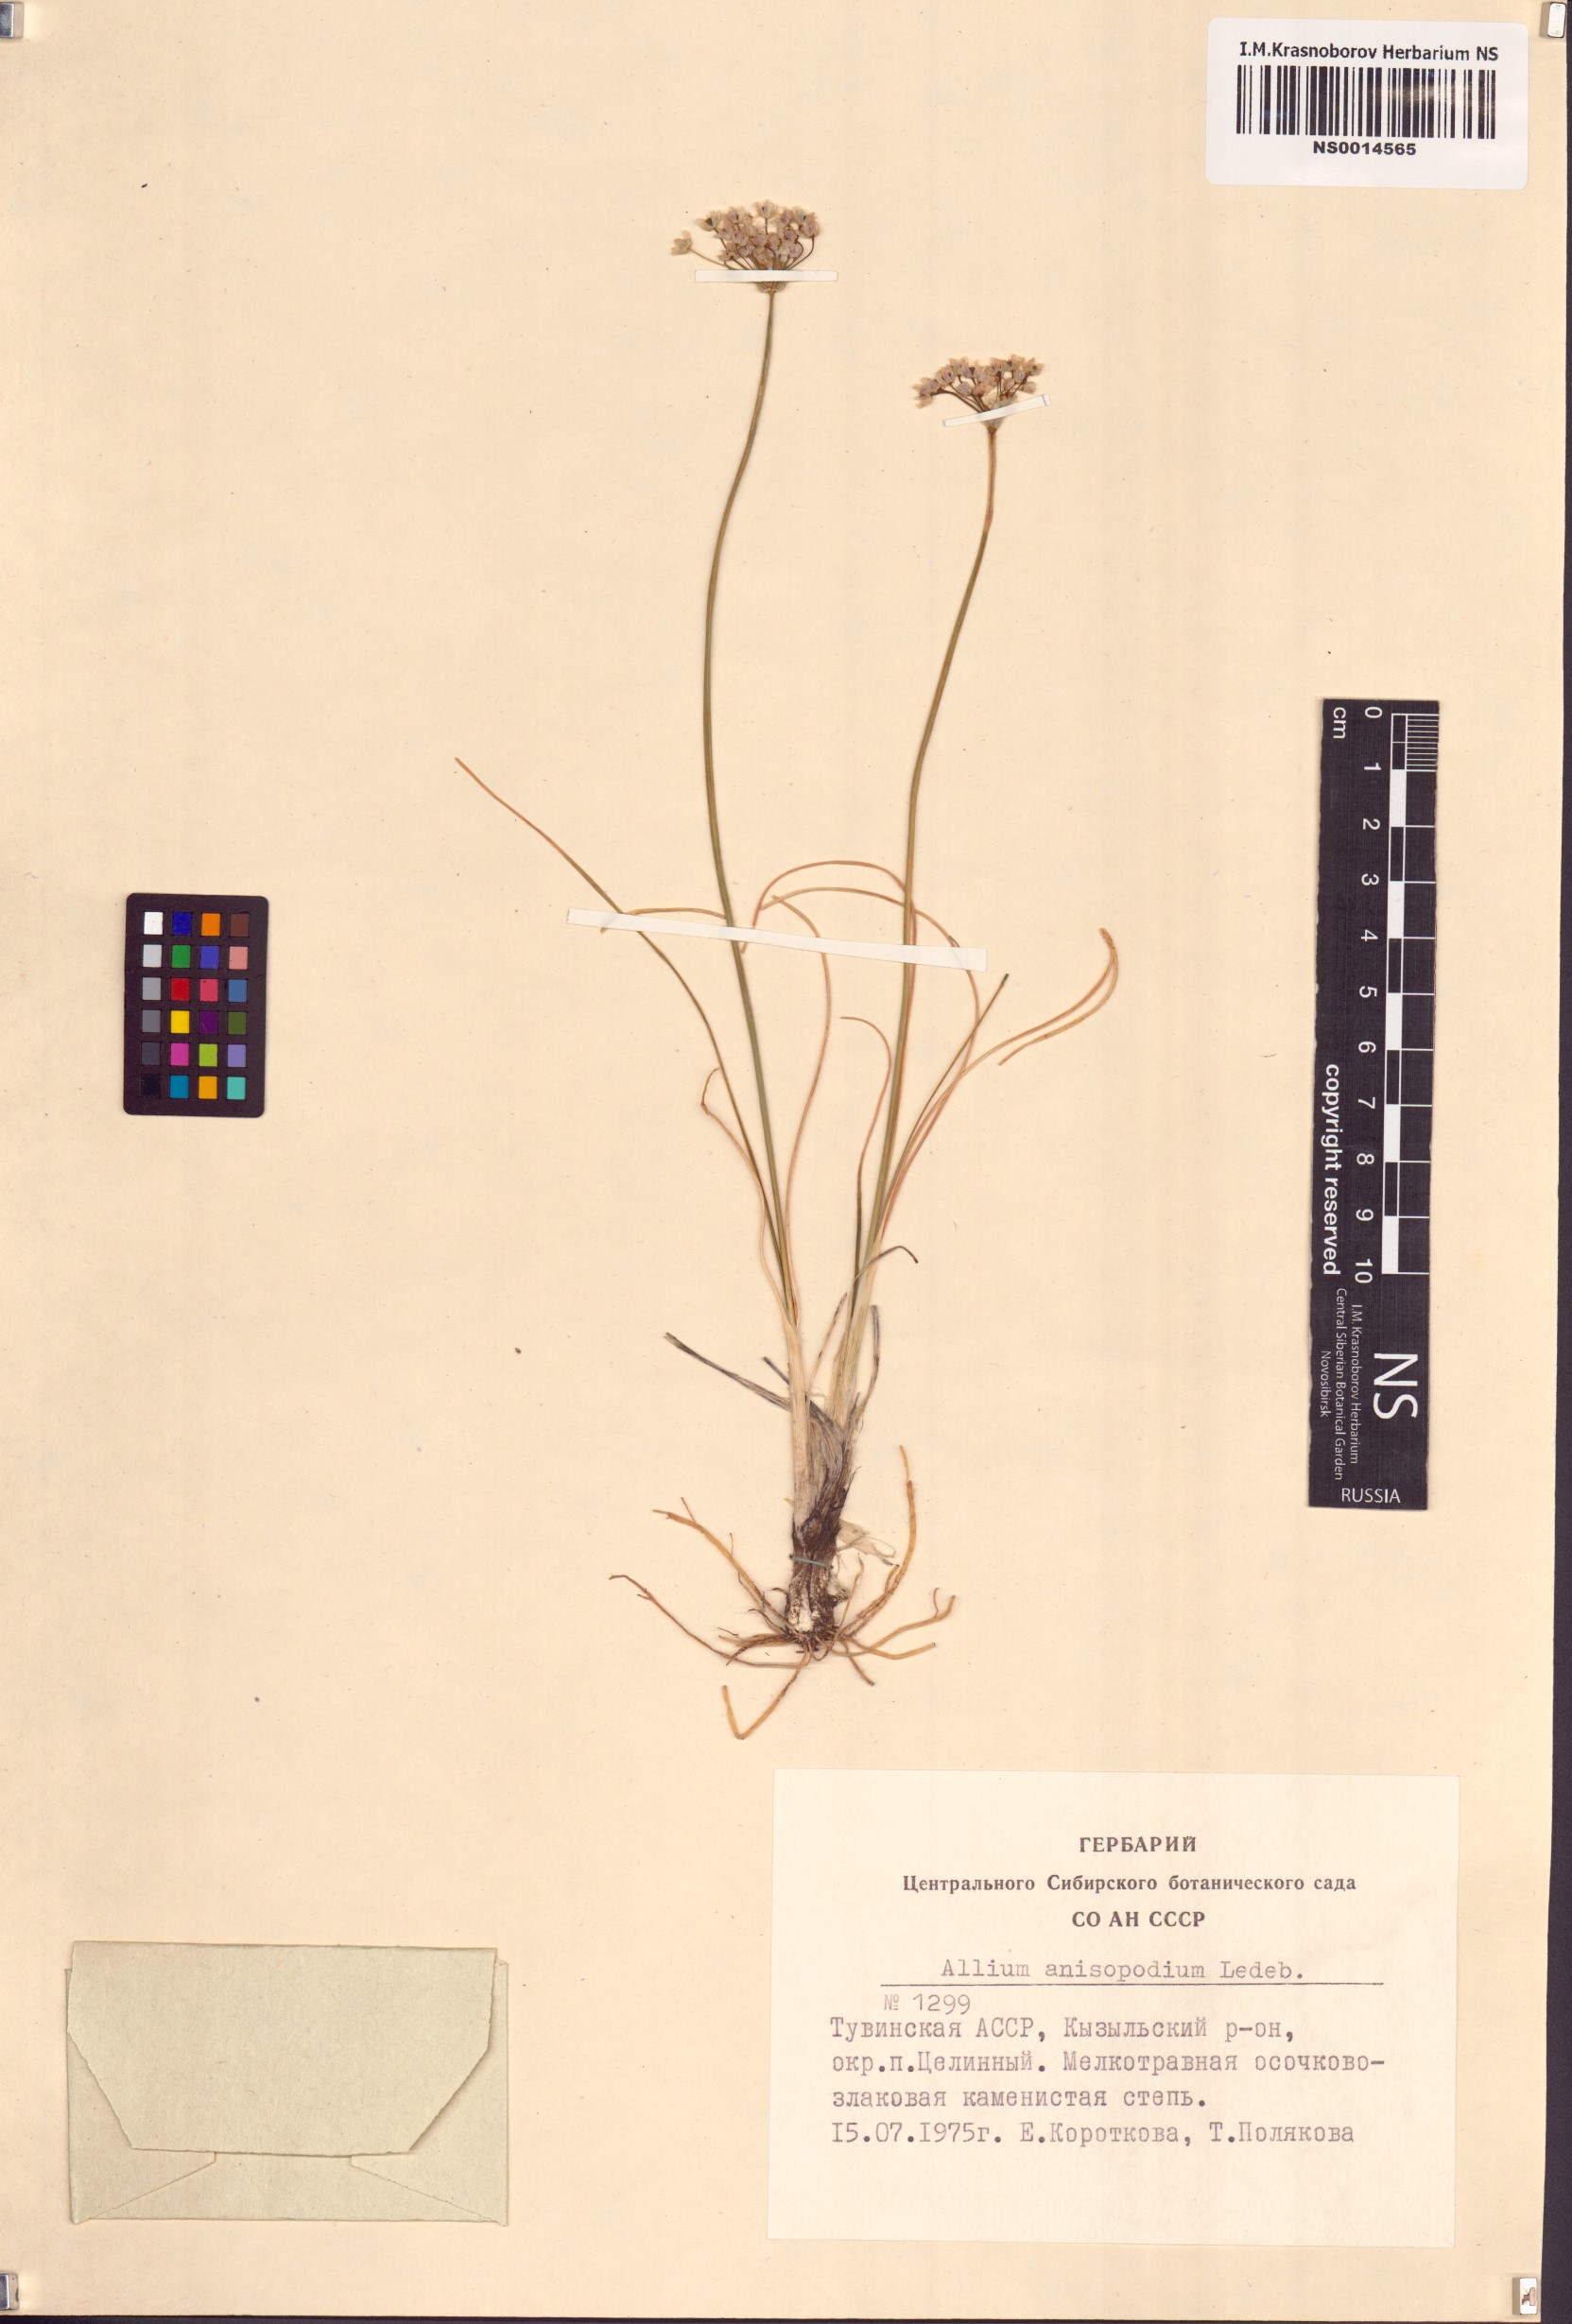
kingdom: Plantae
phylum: Tracheophyta
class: Liliopsida
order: Asparagales
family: Amaryllidaceae
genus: Allium
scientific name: Allium anisopodium
